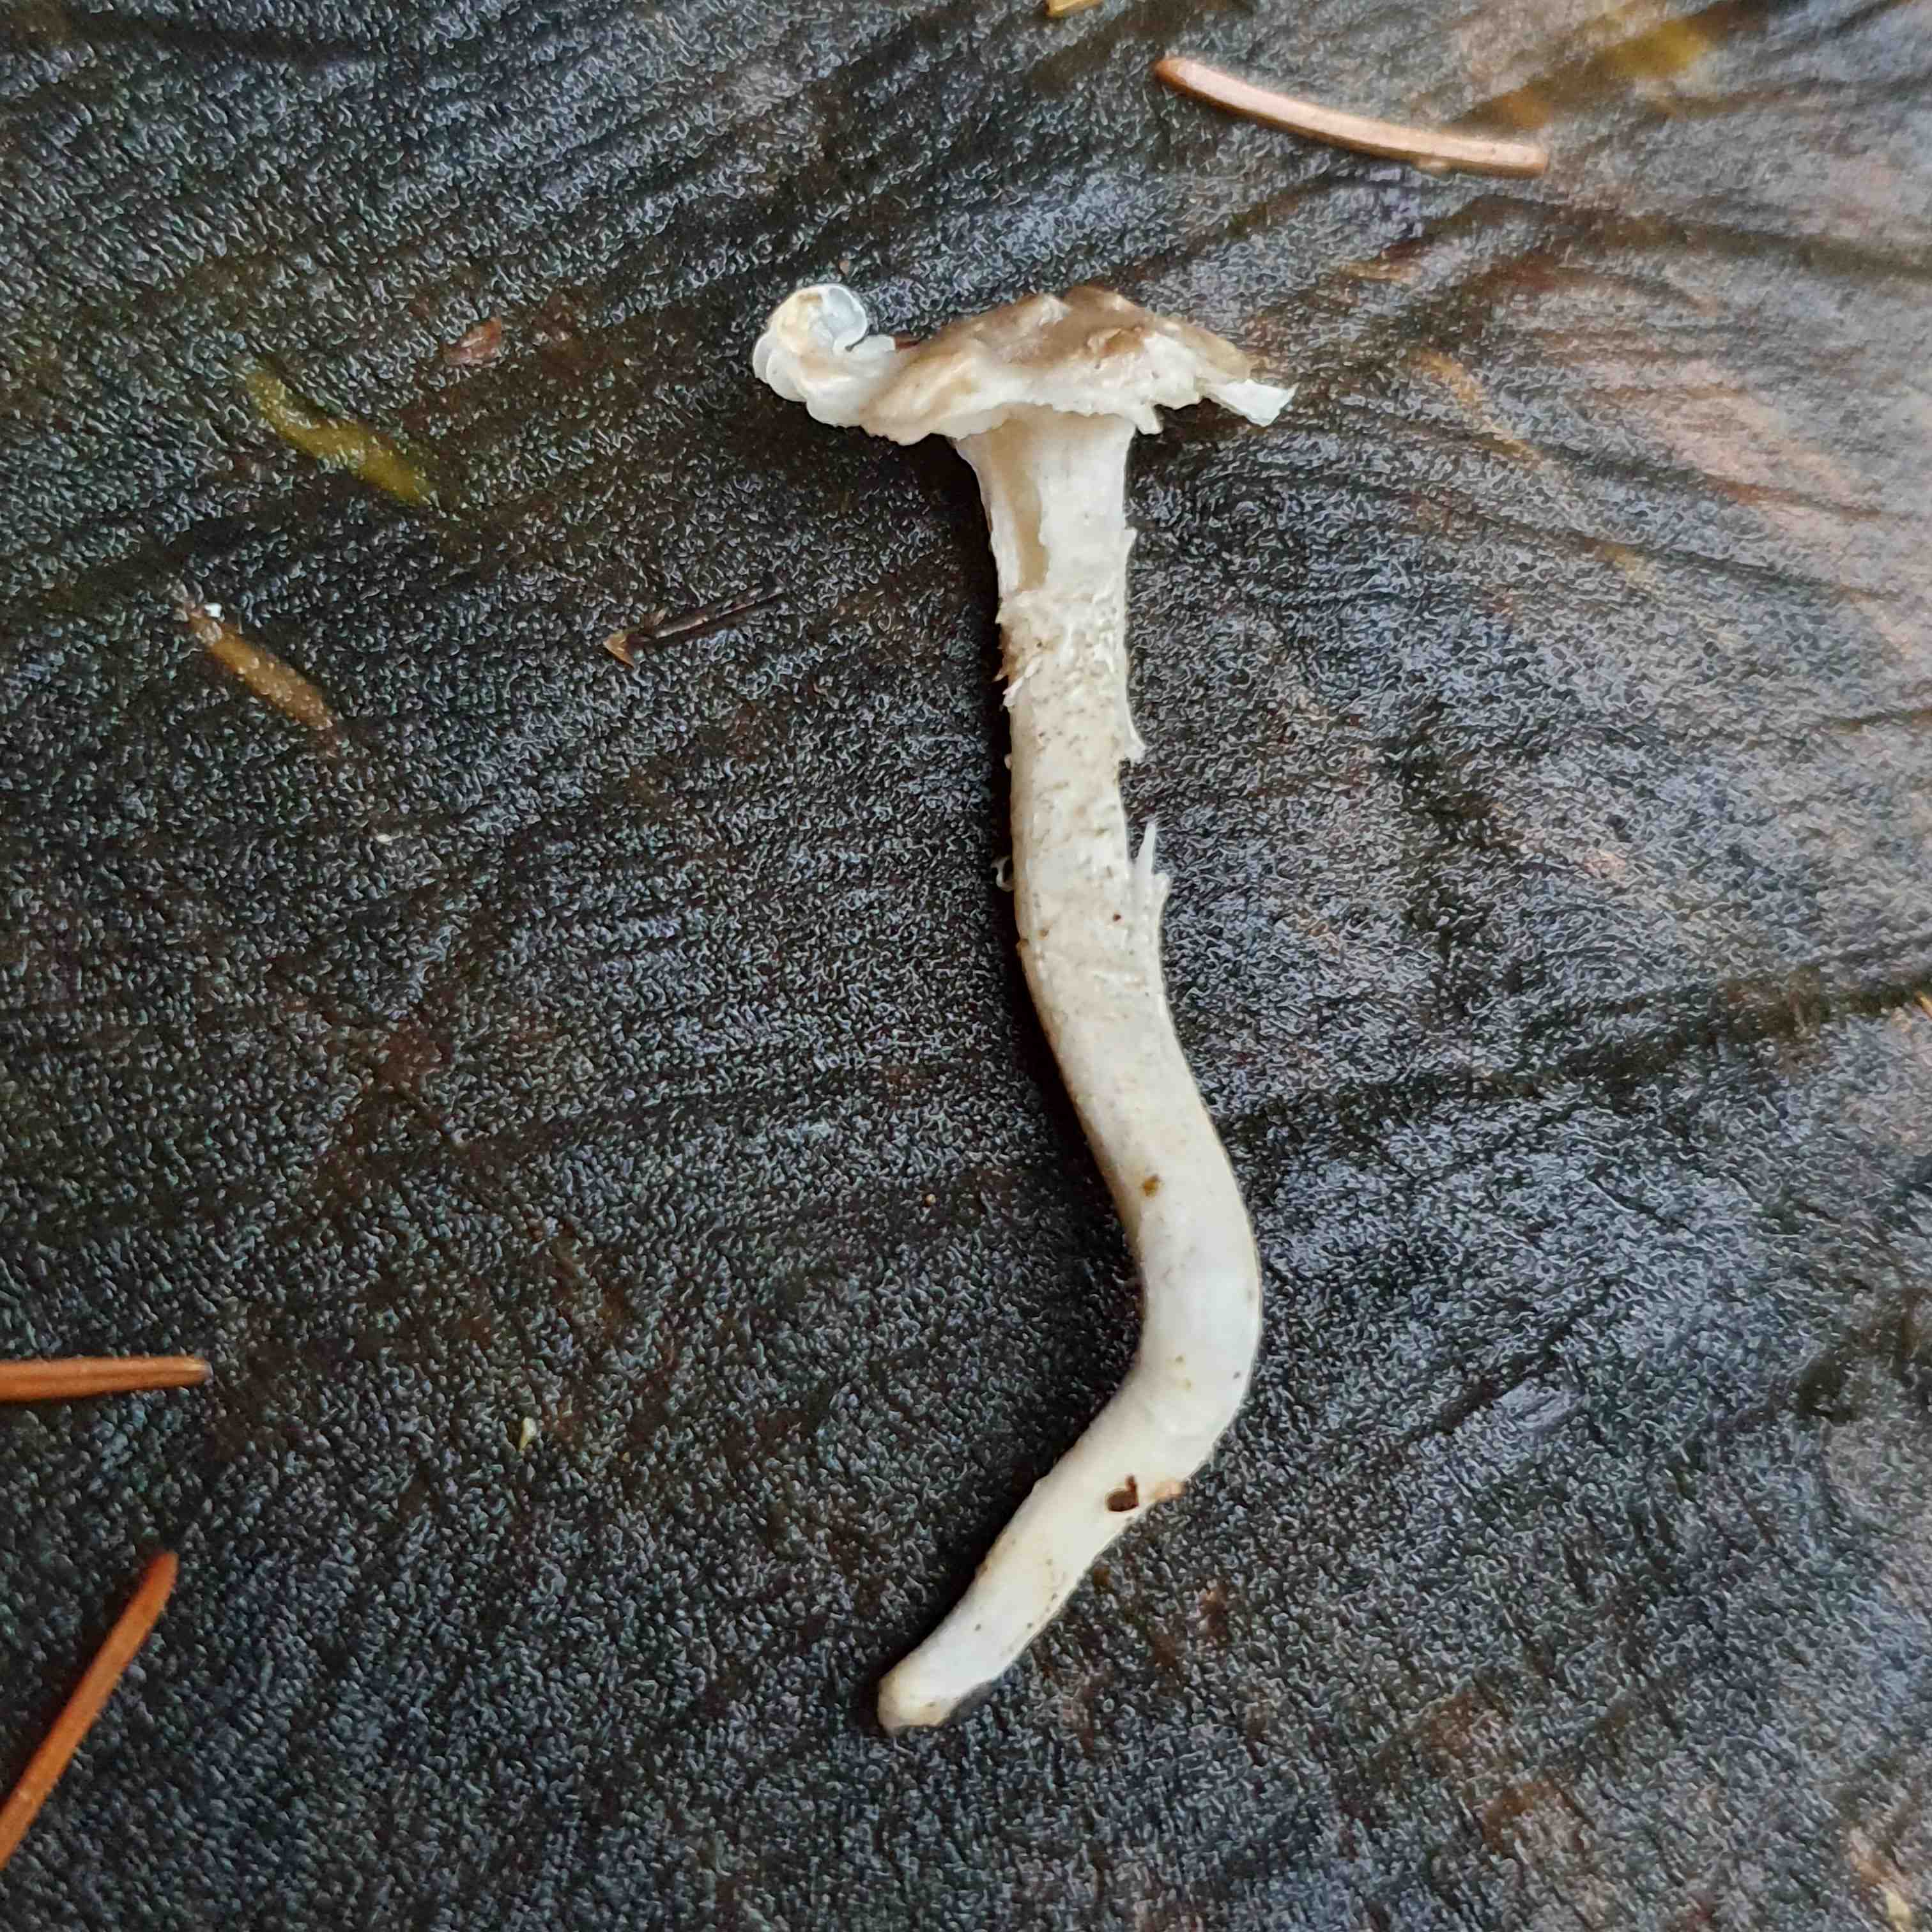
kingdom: Fungi
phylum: Basidiomycota
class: Agaricomycetes
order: Agaricales
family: Hygrophoraceae
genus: Hygrophorus
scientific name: Hygrophorus pustulatus
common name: mørkprikket sneglehat
